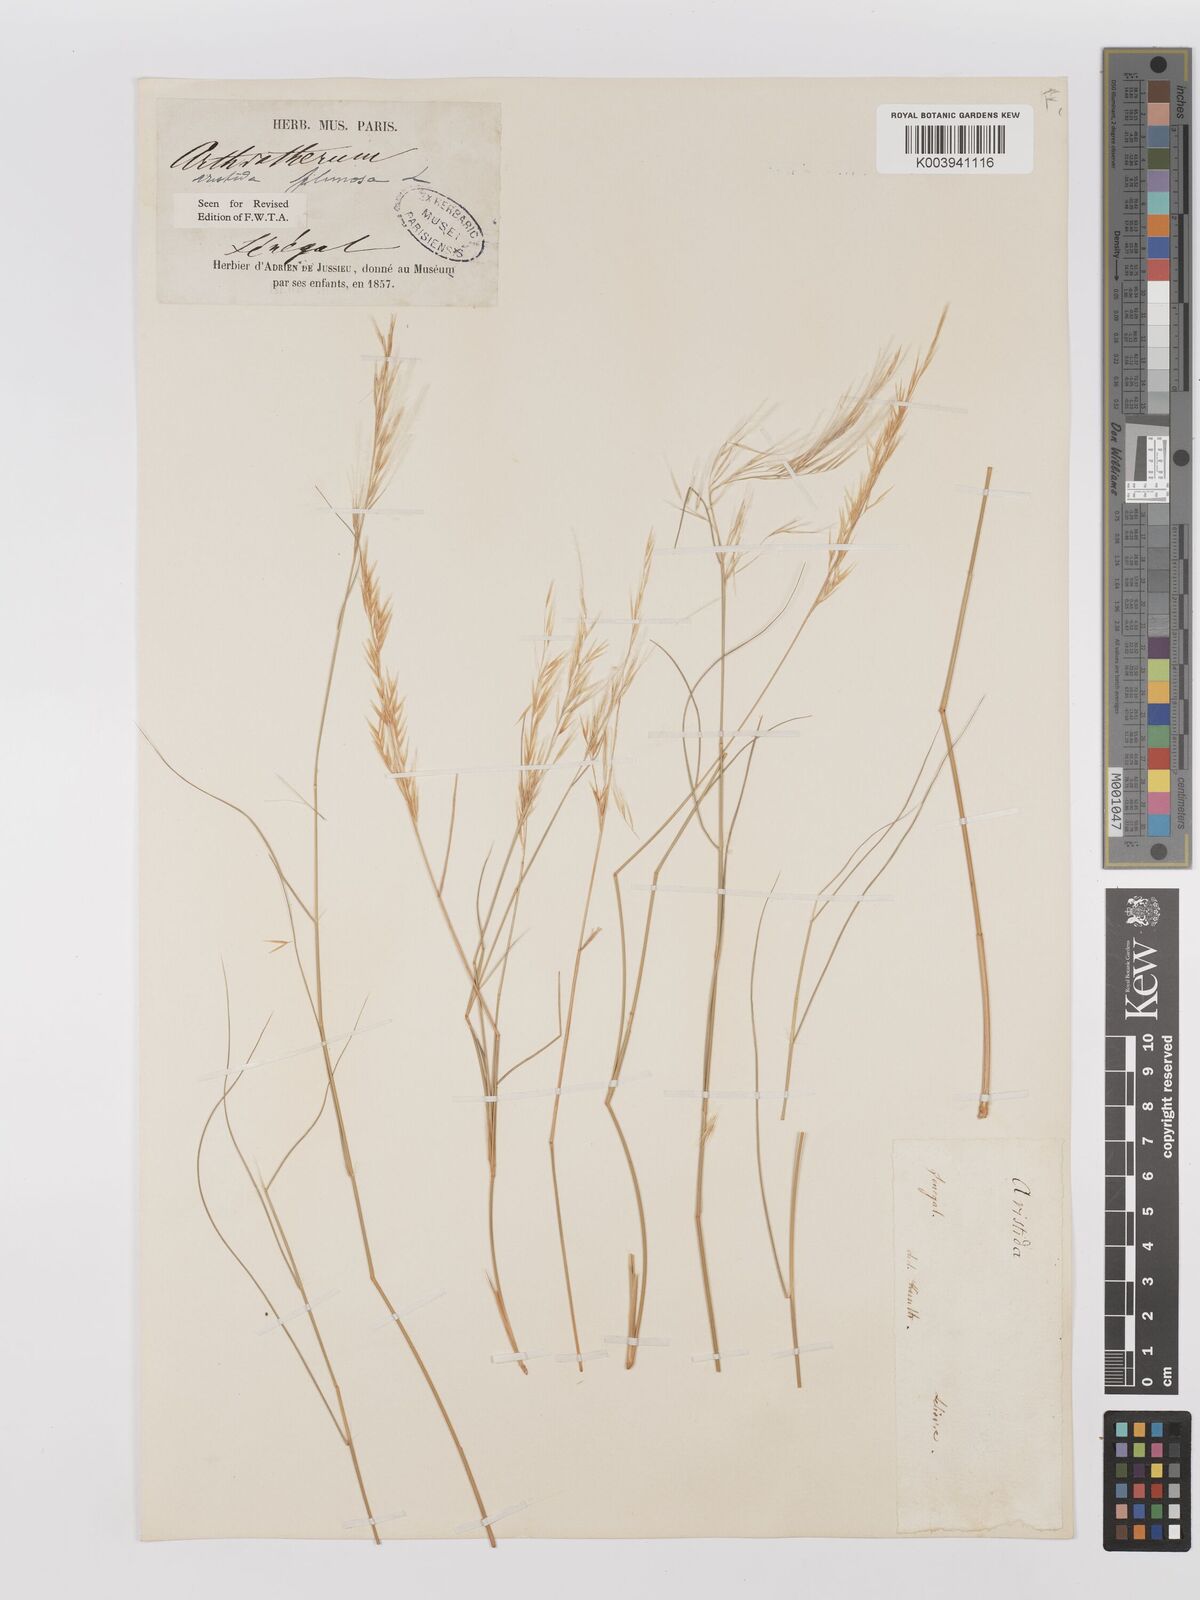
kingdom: Plantae
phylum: Tracheophyta
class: Liliopsida
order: Poales
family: Poaceae
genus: Stipagrostis
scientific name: Stipagrostis plumosa
